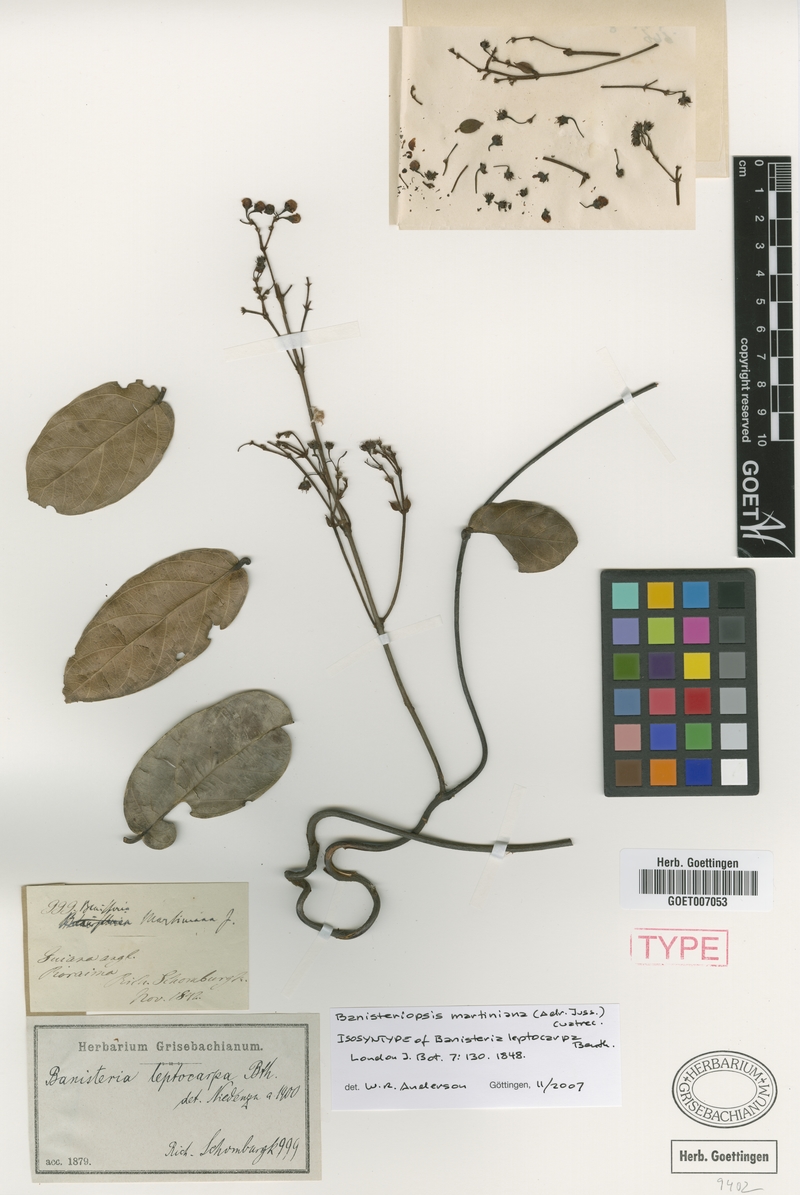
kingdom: Plantae
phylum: Tracheophyta
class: Magnoliopsida
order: Malpighiales
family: Malpighiaceae
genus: Banisteriopsis
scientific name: Banisteriopsis martiniana
